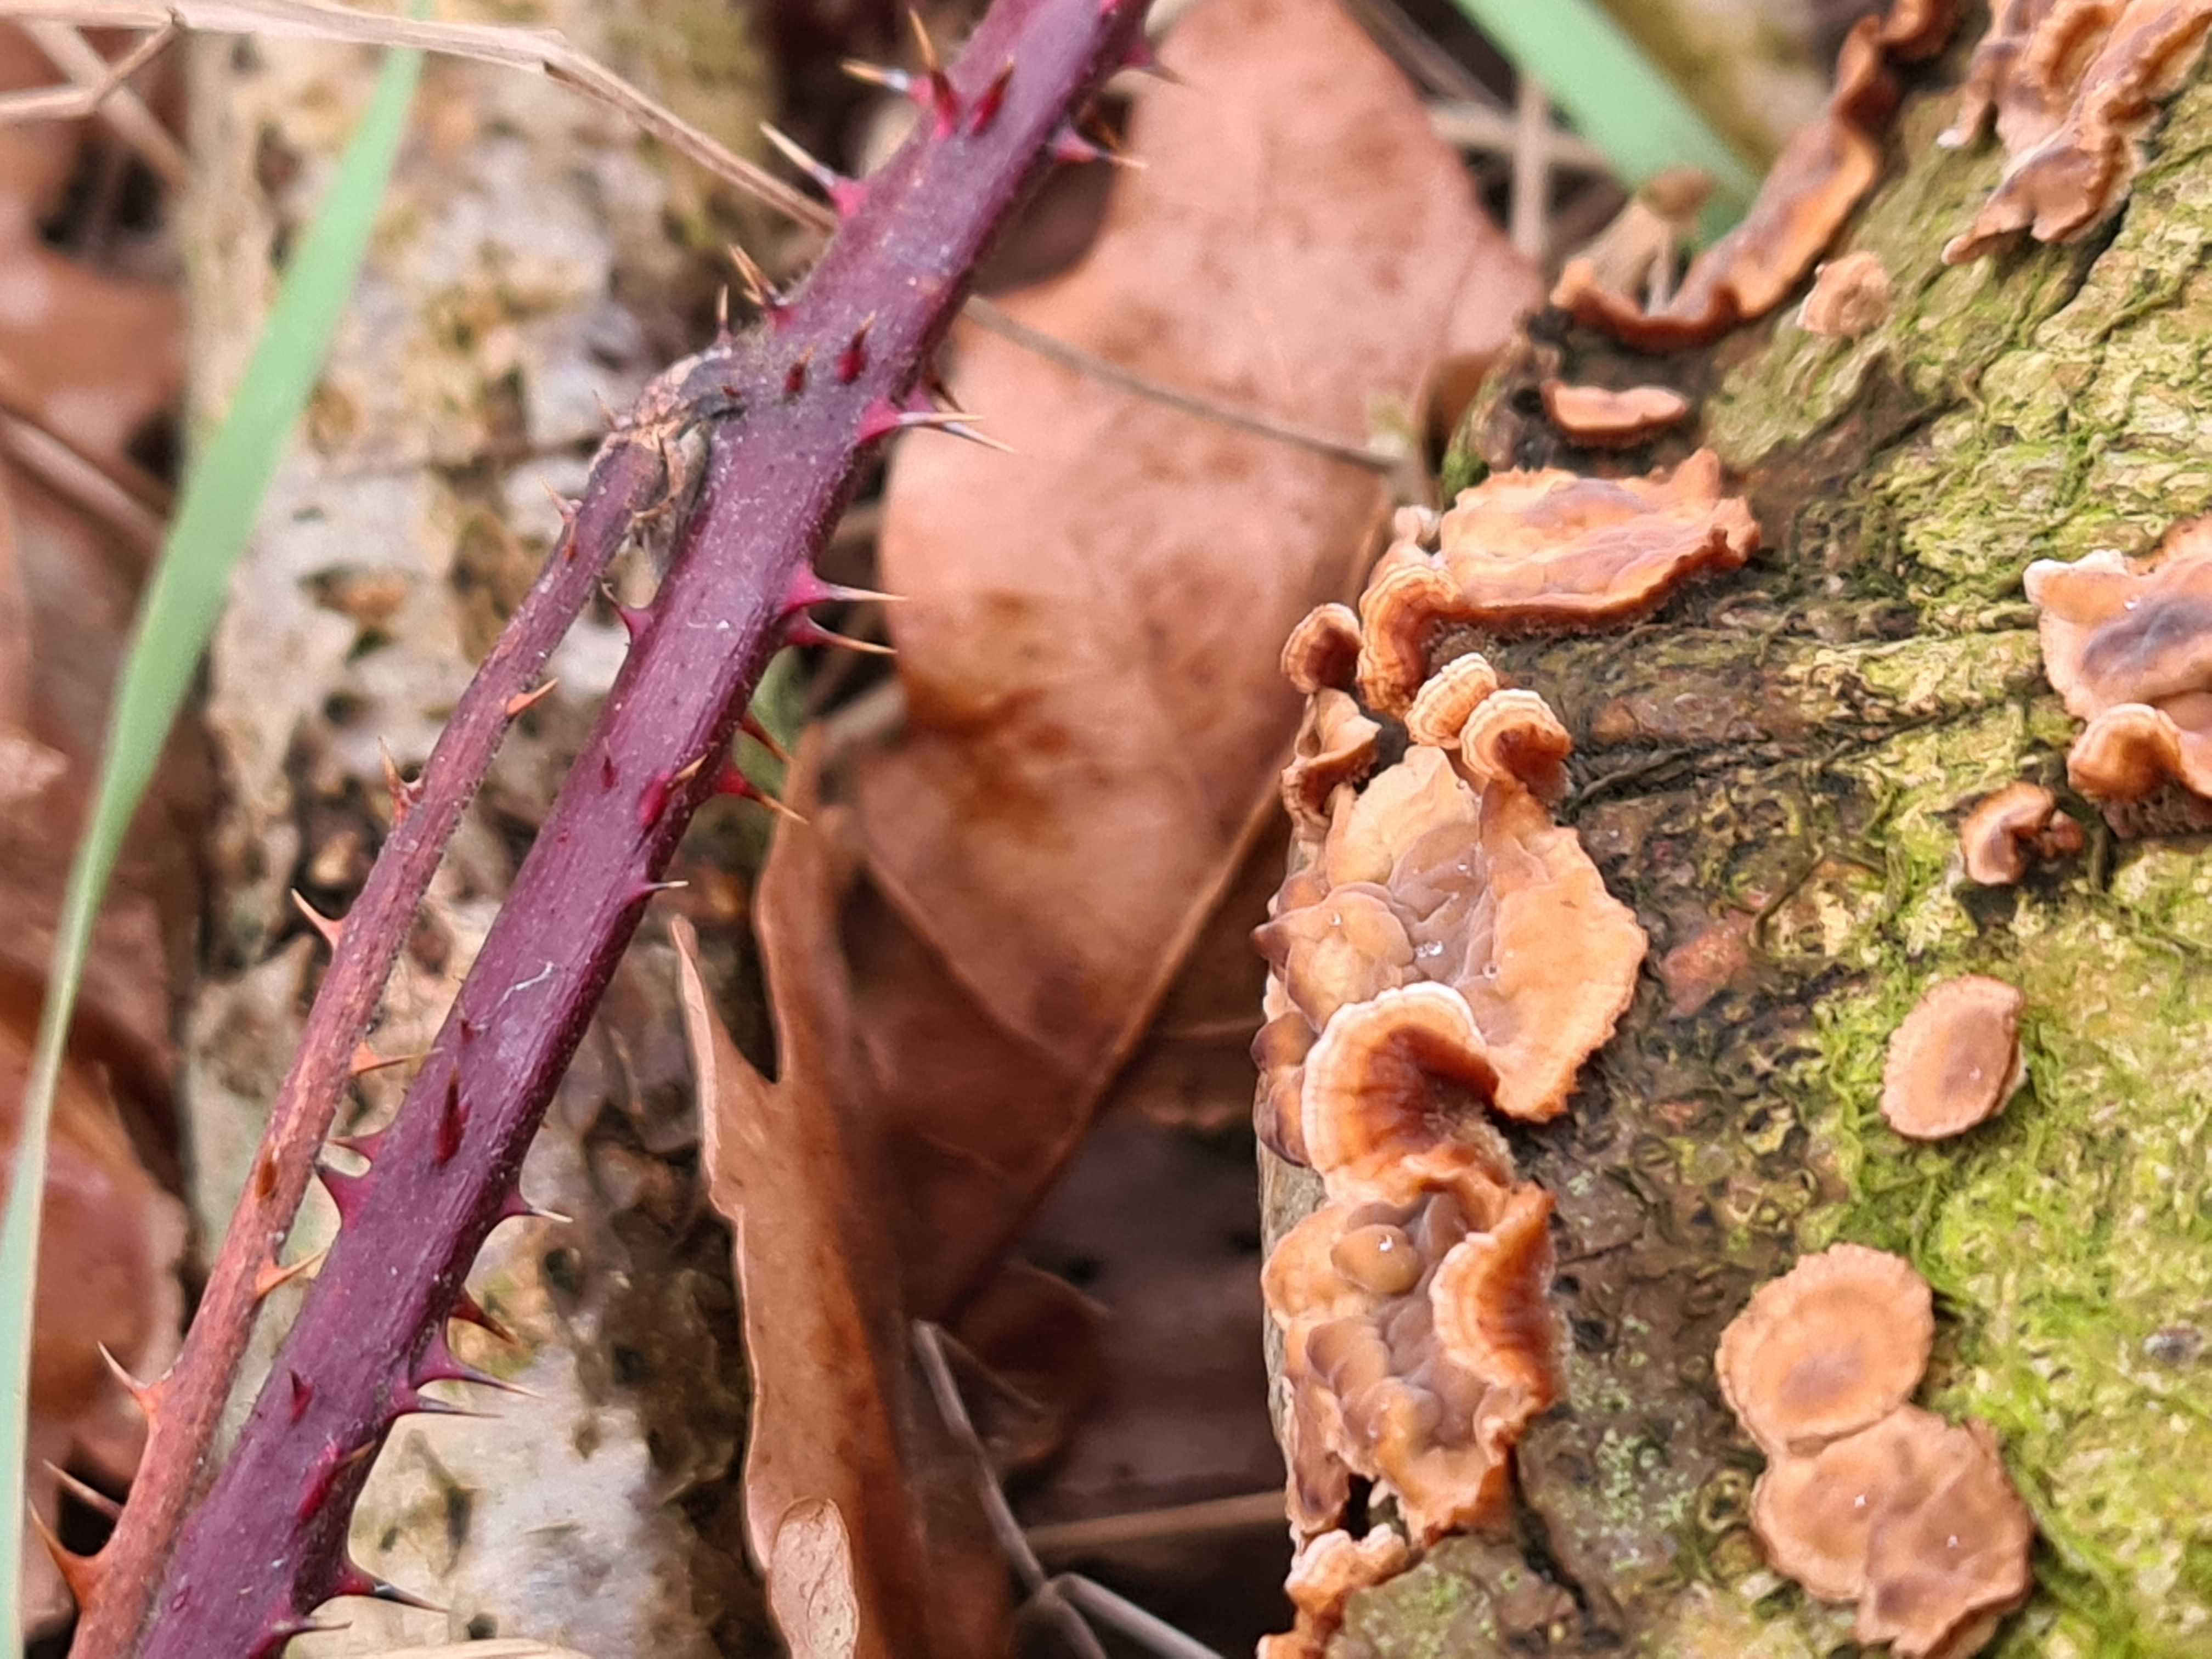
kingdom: Fungi
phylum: Basidiomycota
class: Agaricomycetes
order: Russulales
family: Stereaceae
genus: Stereum
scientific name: Stereum hirsutum
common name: håret lædersvamp
